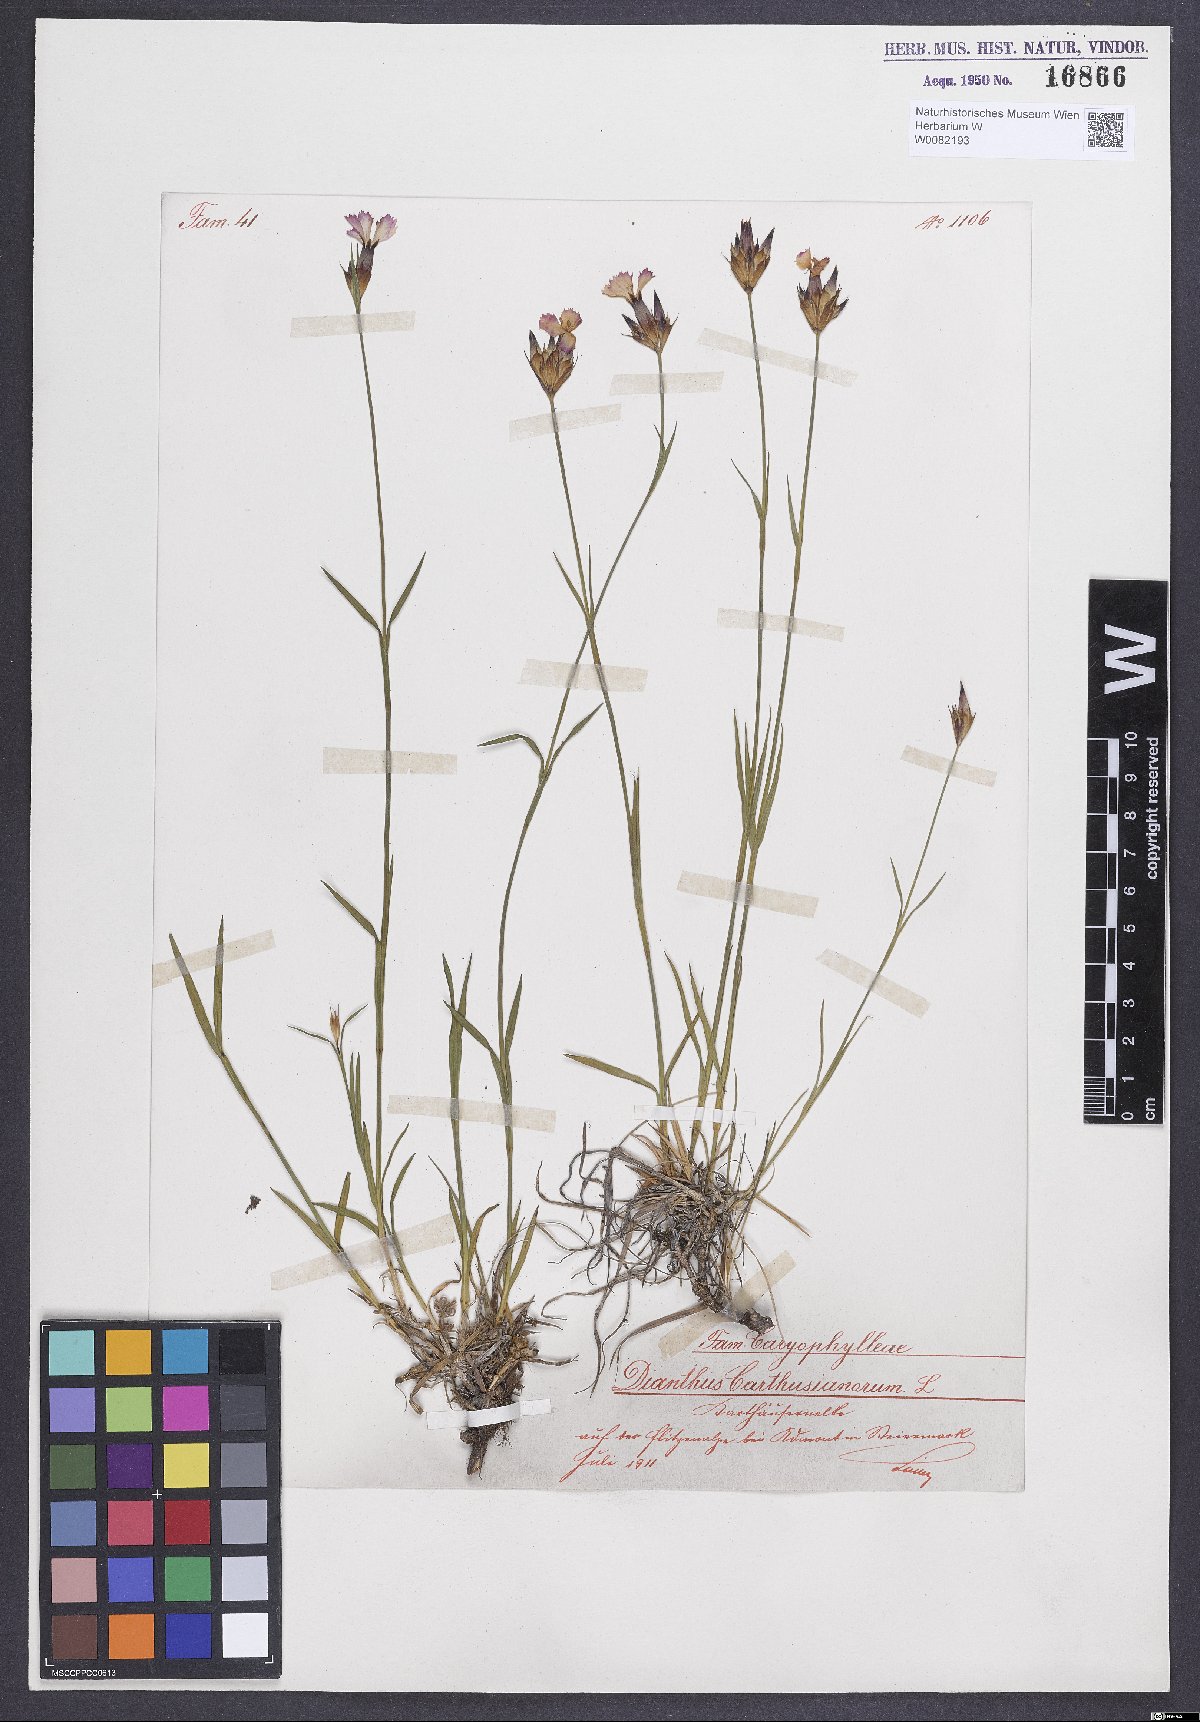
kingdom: Plantae
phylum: Tracheophyta
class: Magnoliopsida
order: Caryophyllales
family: Caryophyllaceae
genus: Dianthus
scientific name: Dianthus carthusianorum
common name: Carthusian pink
